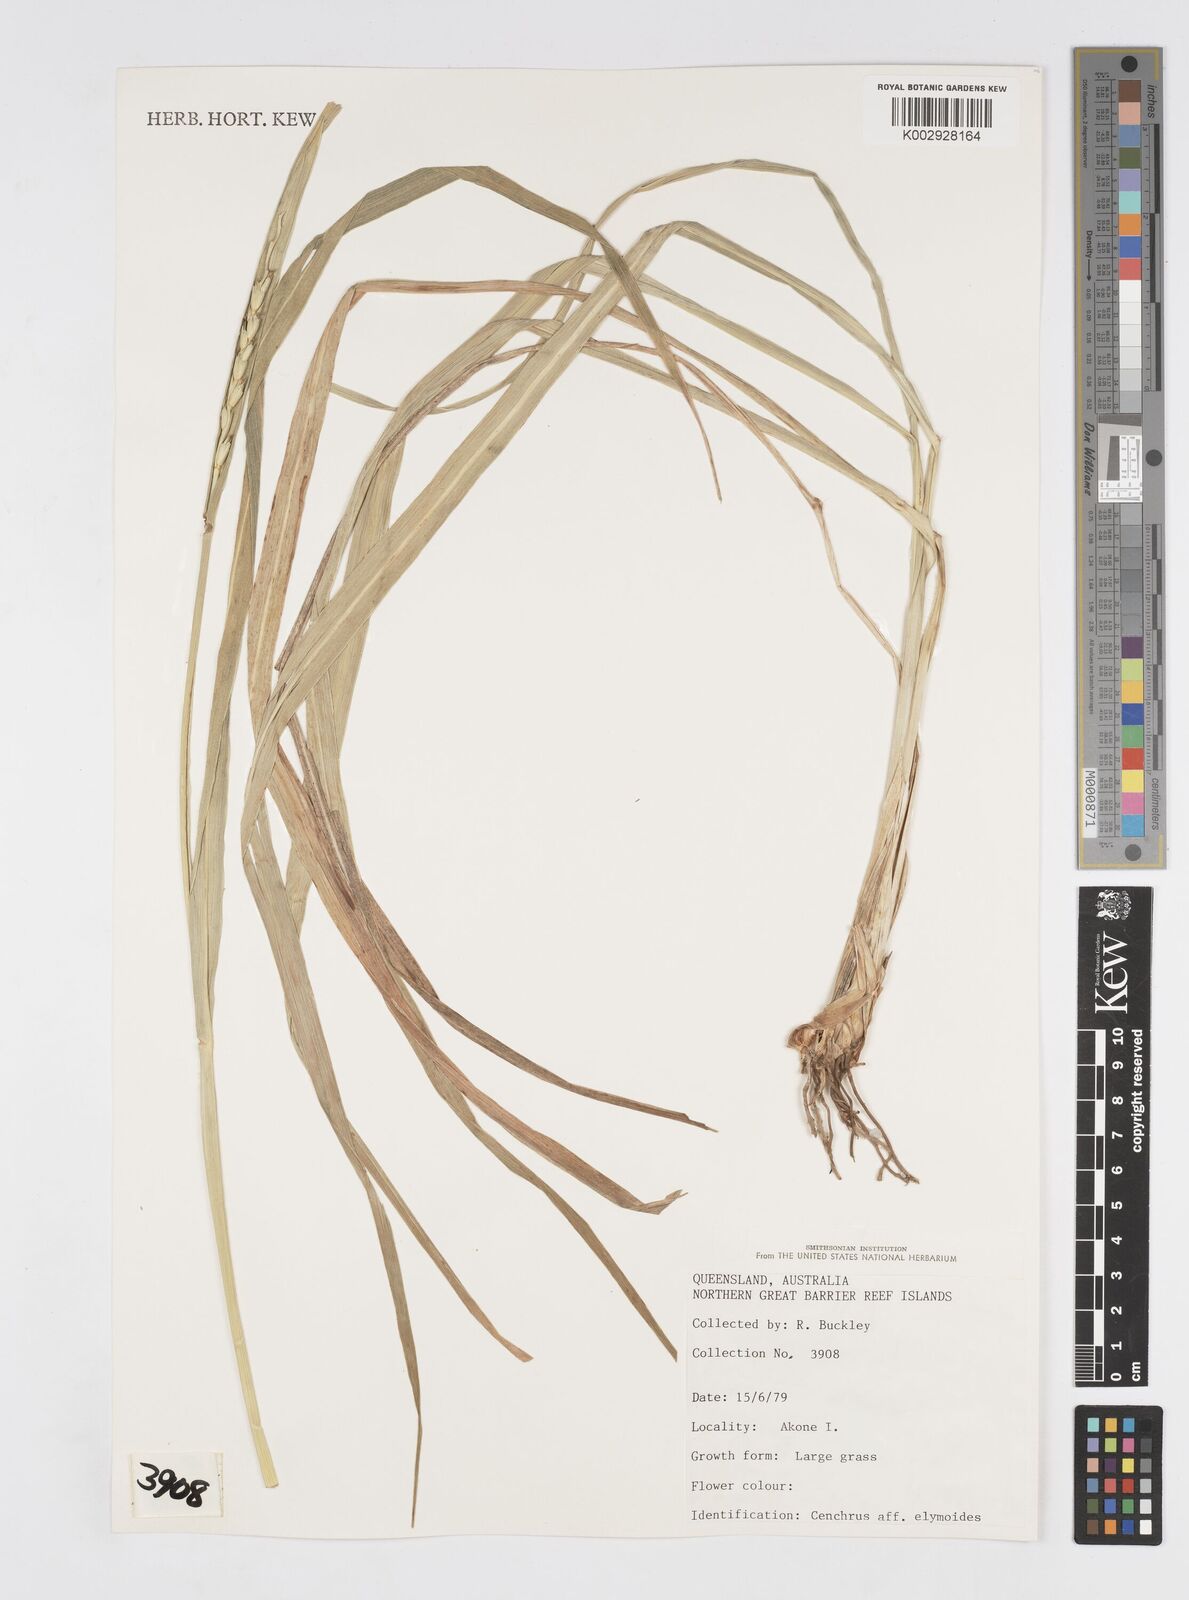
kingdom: Plantae
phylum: Tracheophyta
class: Liliopsida
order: Poales
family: Poaceae
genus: Cenchrus
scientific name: Cenchrus elymoides
